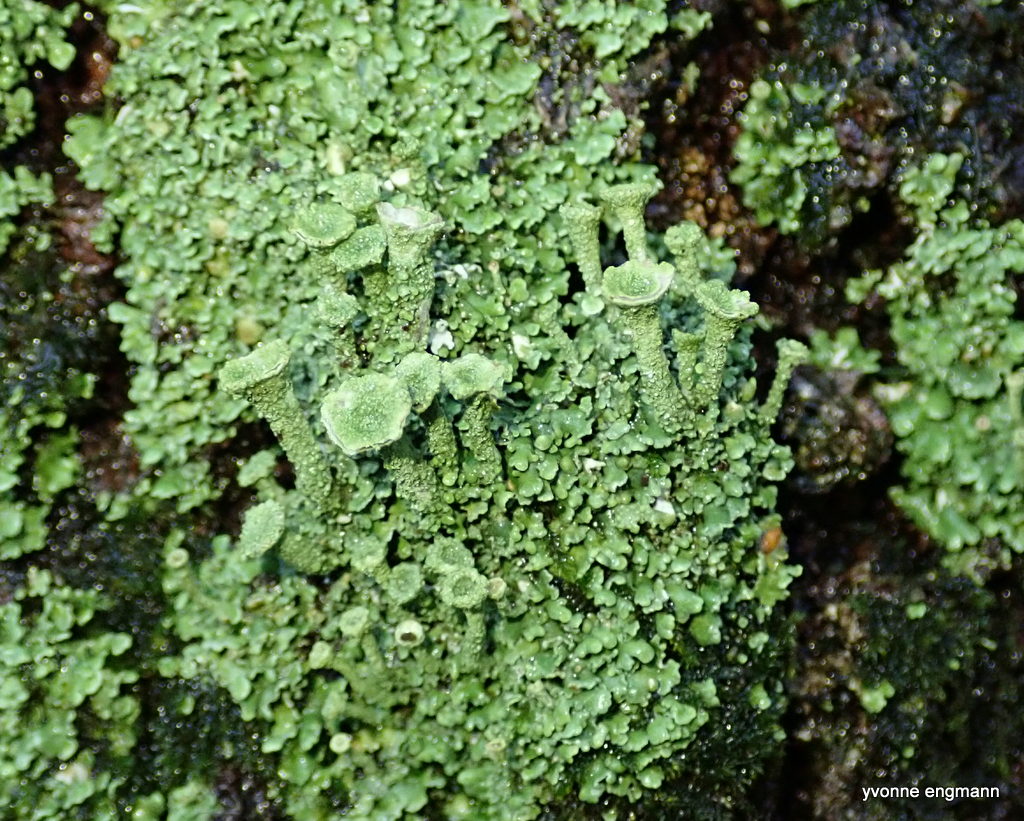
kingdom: Fungi
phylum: Ascomycota
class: Lecanoromycetes
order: Lecanorales
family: Cladoniaceae
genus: Cladonia
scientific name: Cladonia
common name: brungrøn bægerlav
